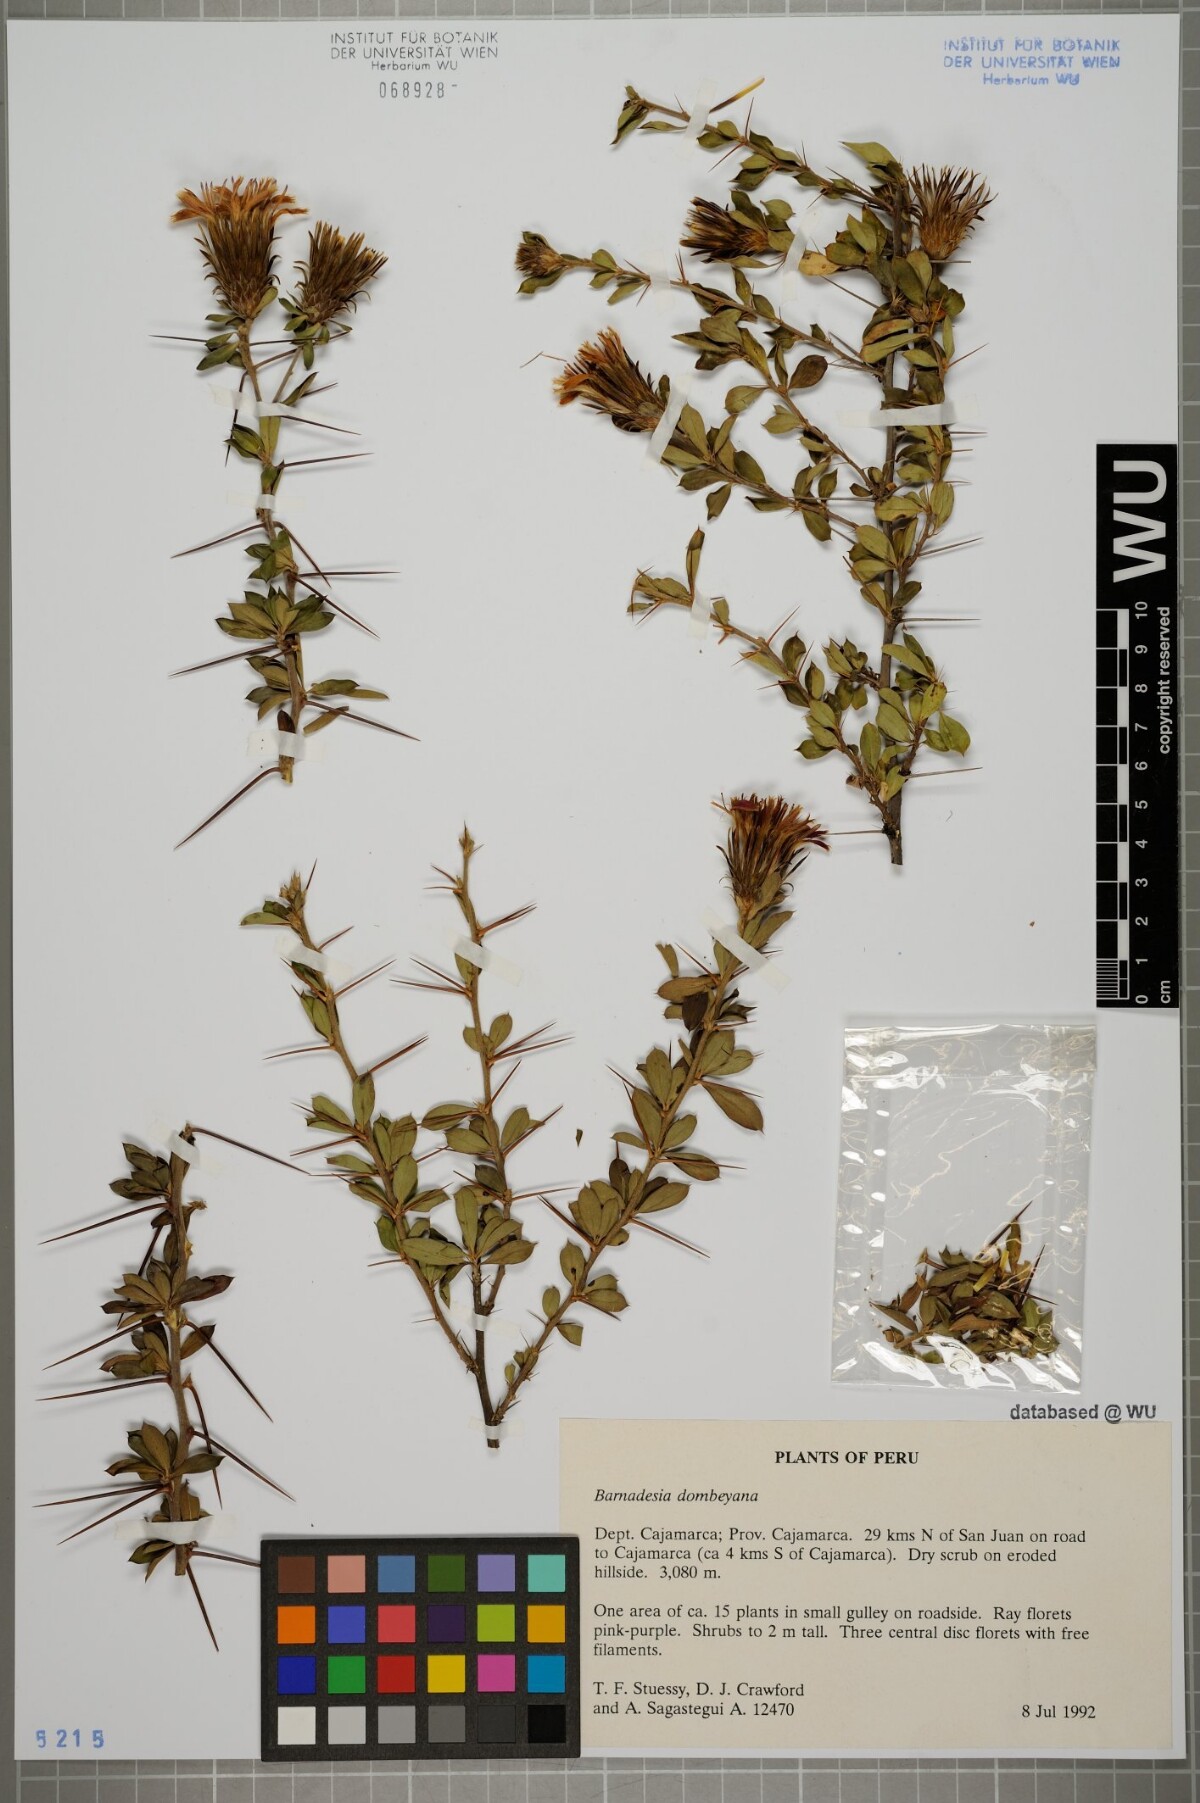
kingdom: Plantae
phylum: Tracheophyta
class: Magnoliopsida
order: Asterales
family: Asteraceae
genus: Barnadesia
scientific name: Barnadesia dombeyana
